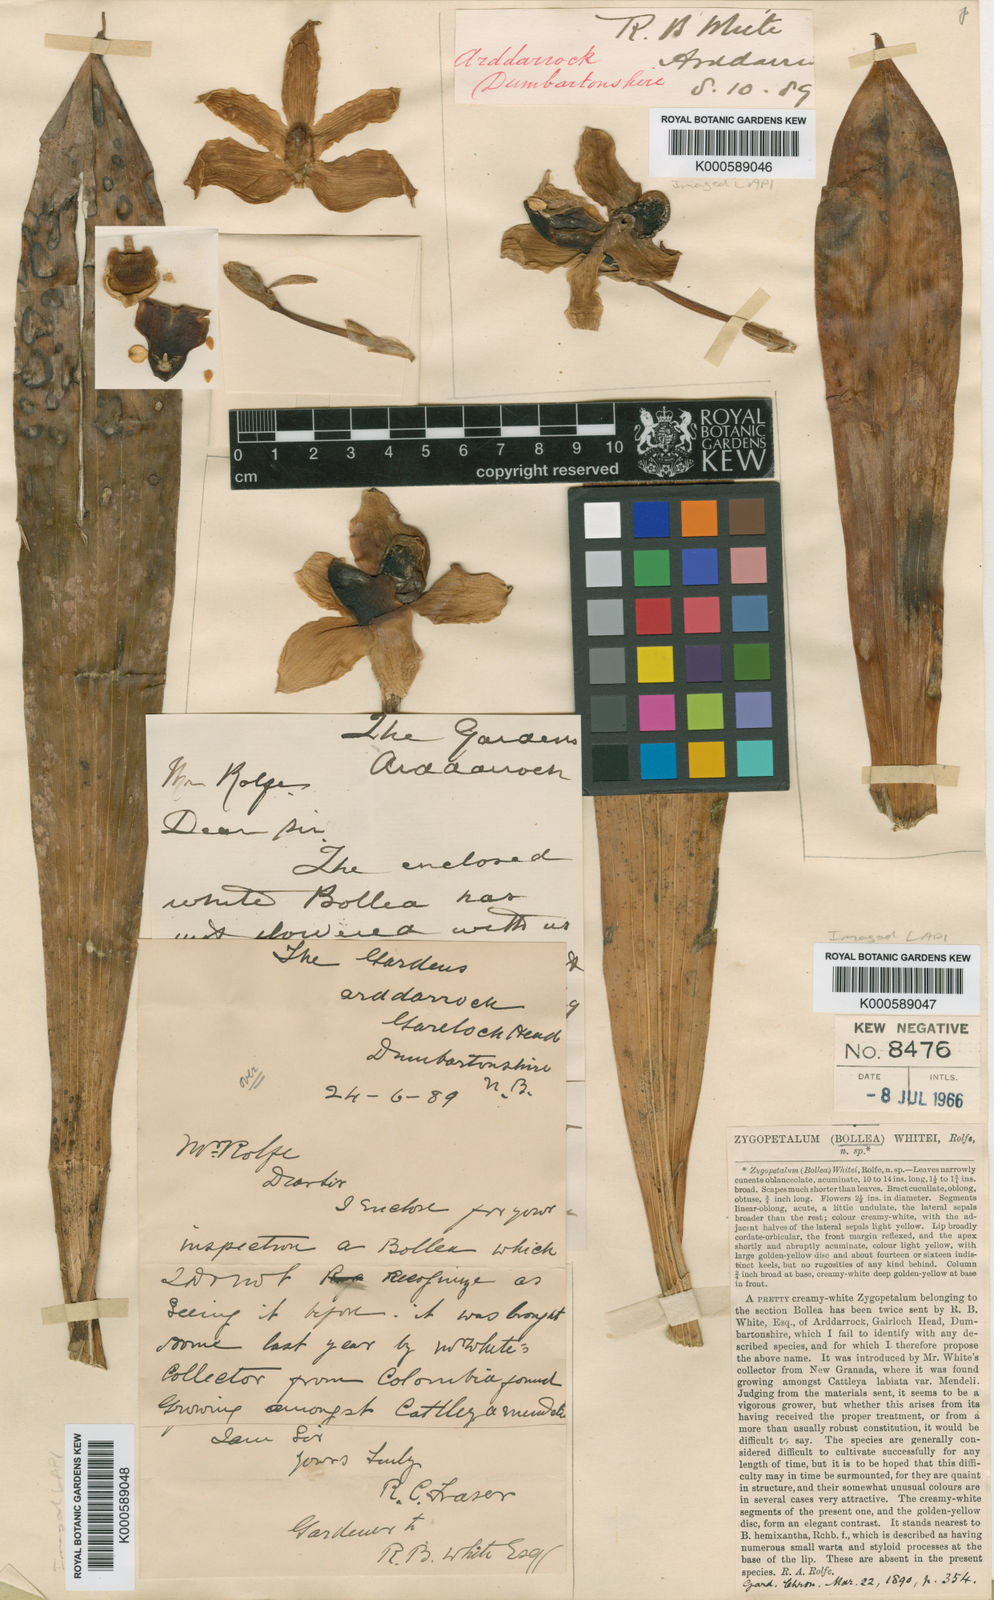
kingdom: Plantae
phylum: Tracheophyta
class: Liliopsida
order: Asparagales
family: Orchidaceae
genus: Pescatoria
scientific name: Pescatoria whitei
